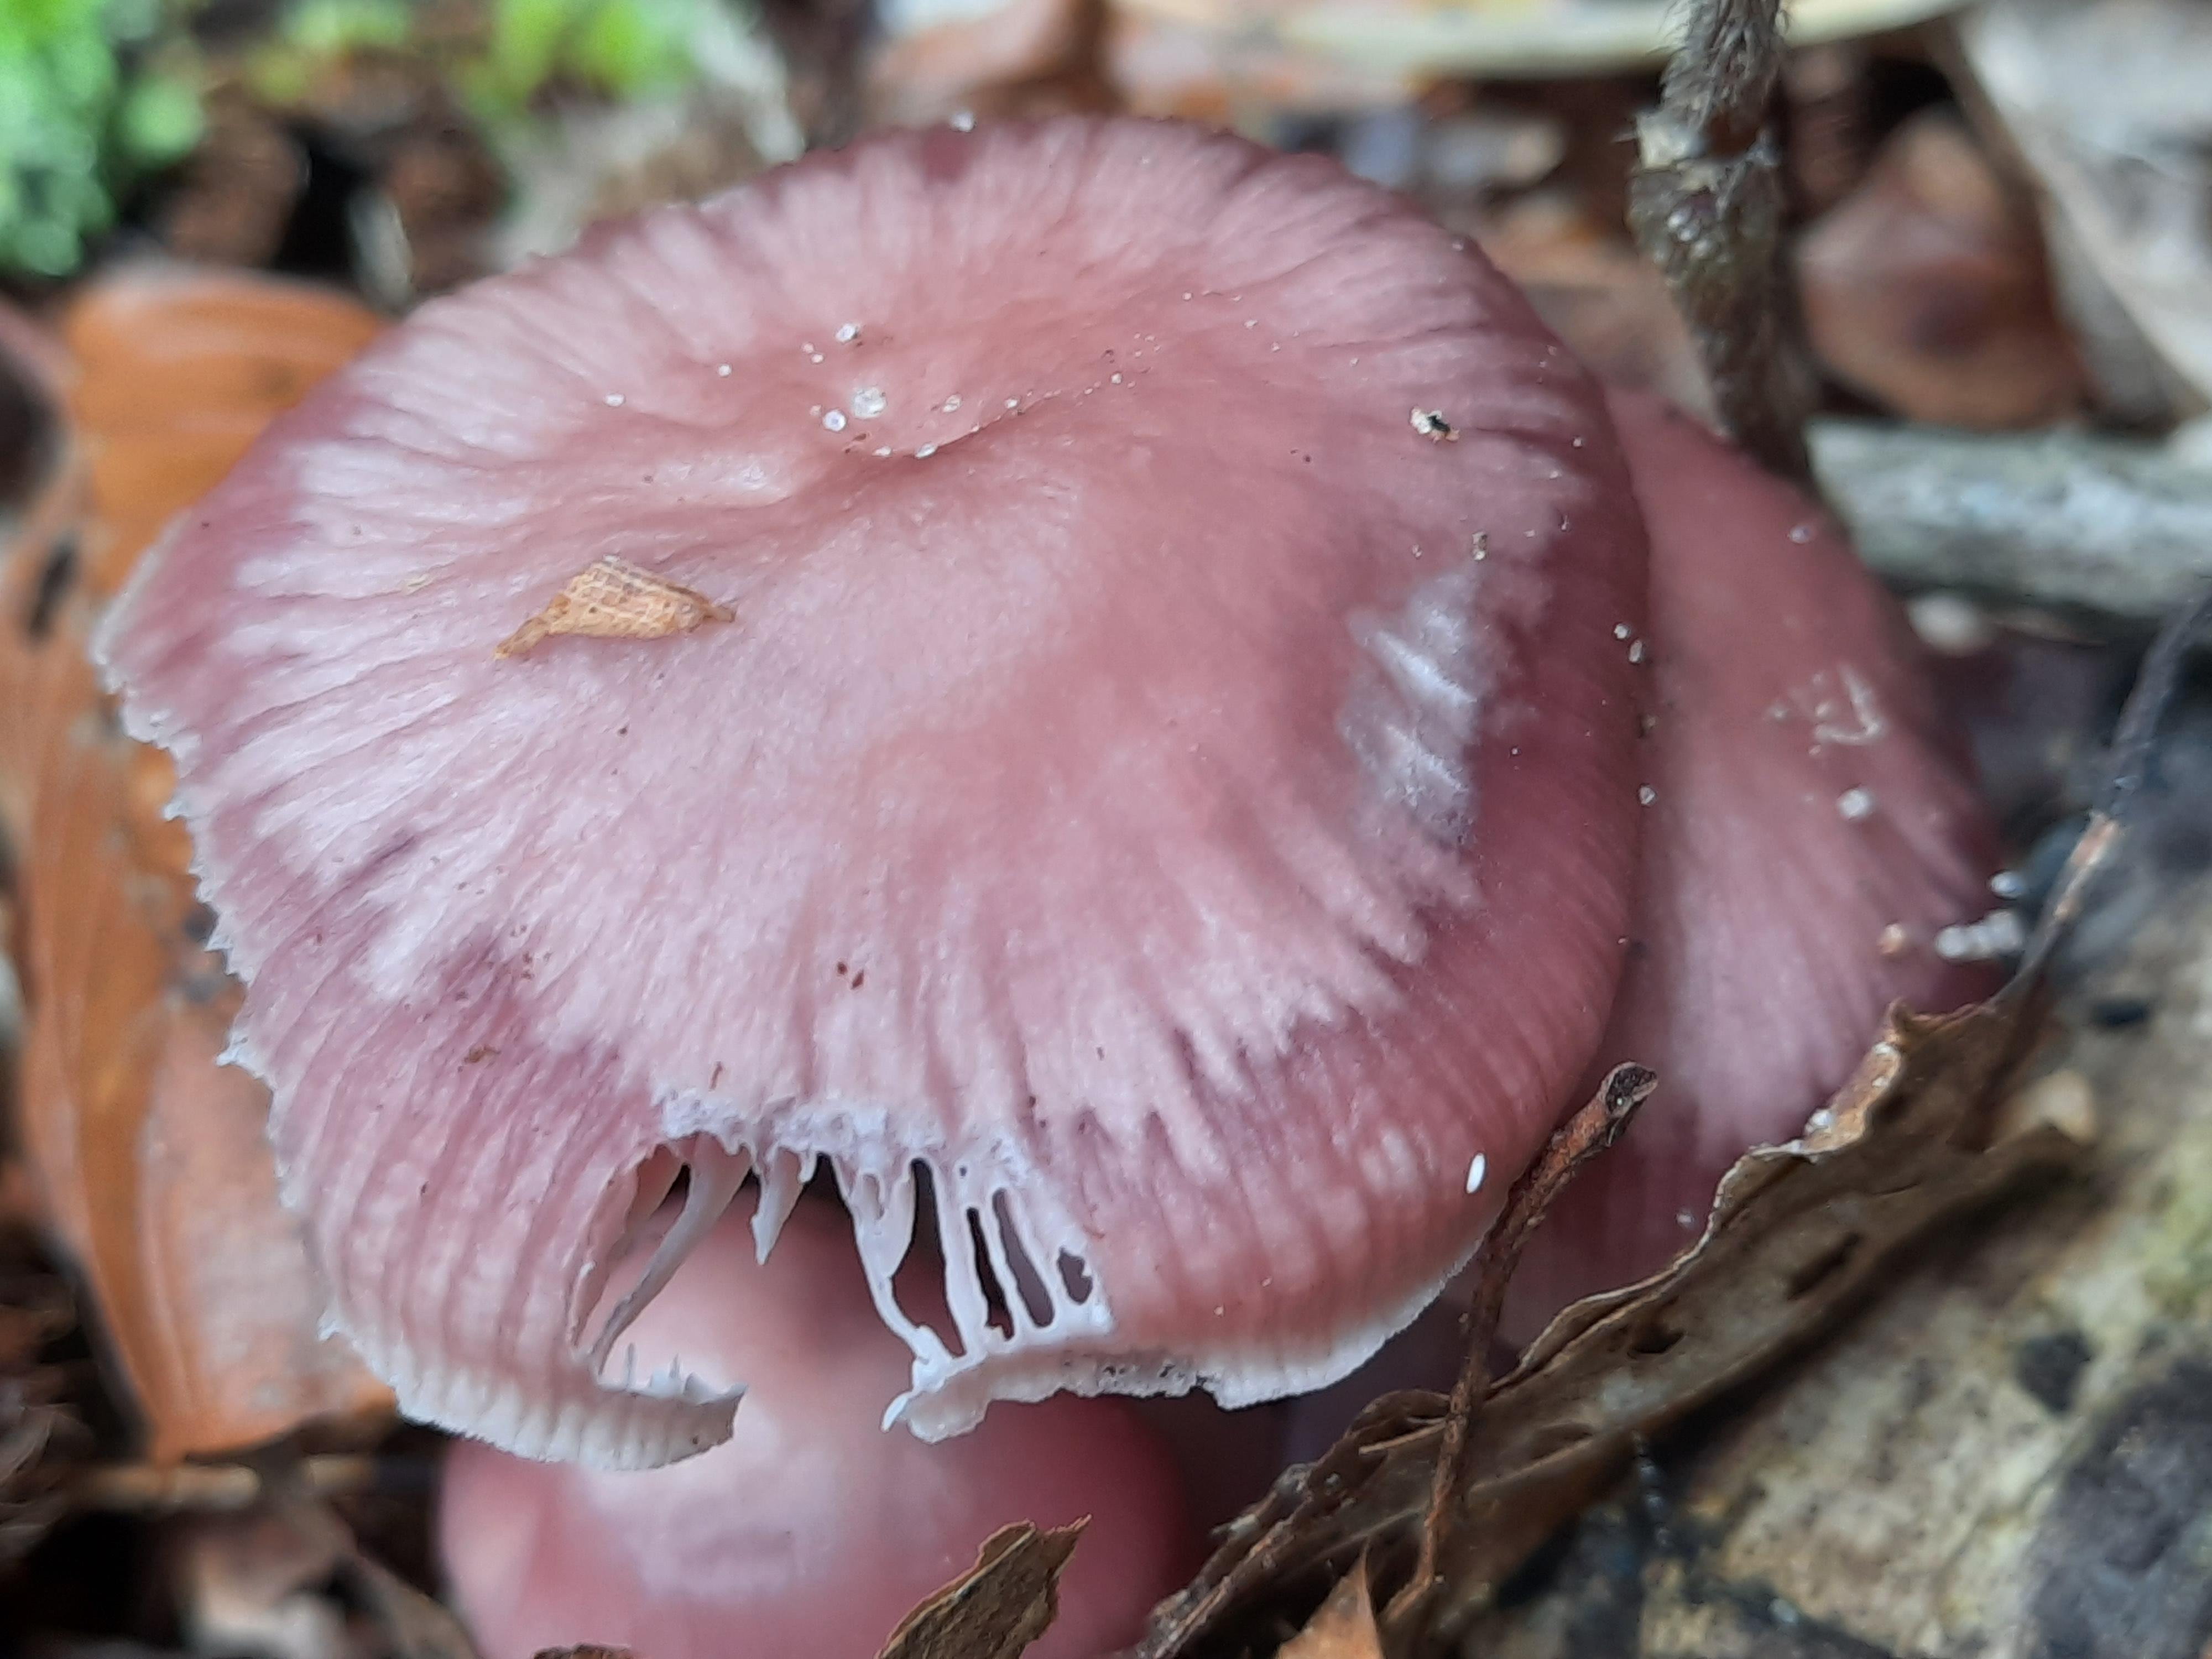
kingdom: Fungi
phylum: Basidiomycota
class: Agaricomycetes
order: Agaricales
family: Mycenaceae
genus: Mycena
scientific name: Mycena rosea
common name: rosa huesvamp
